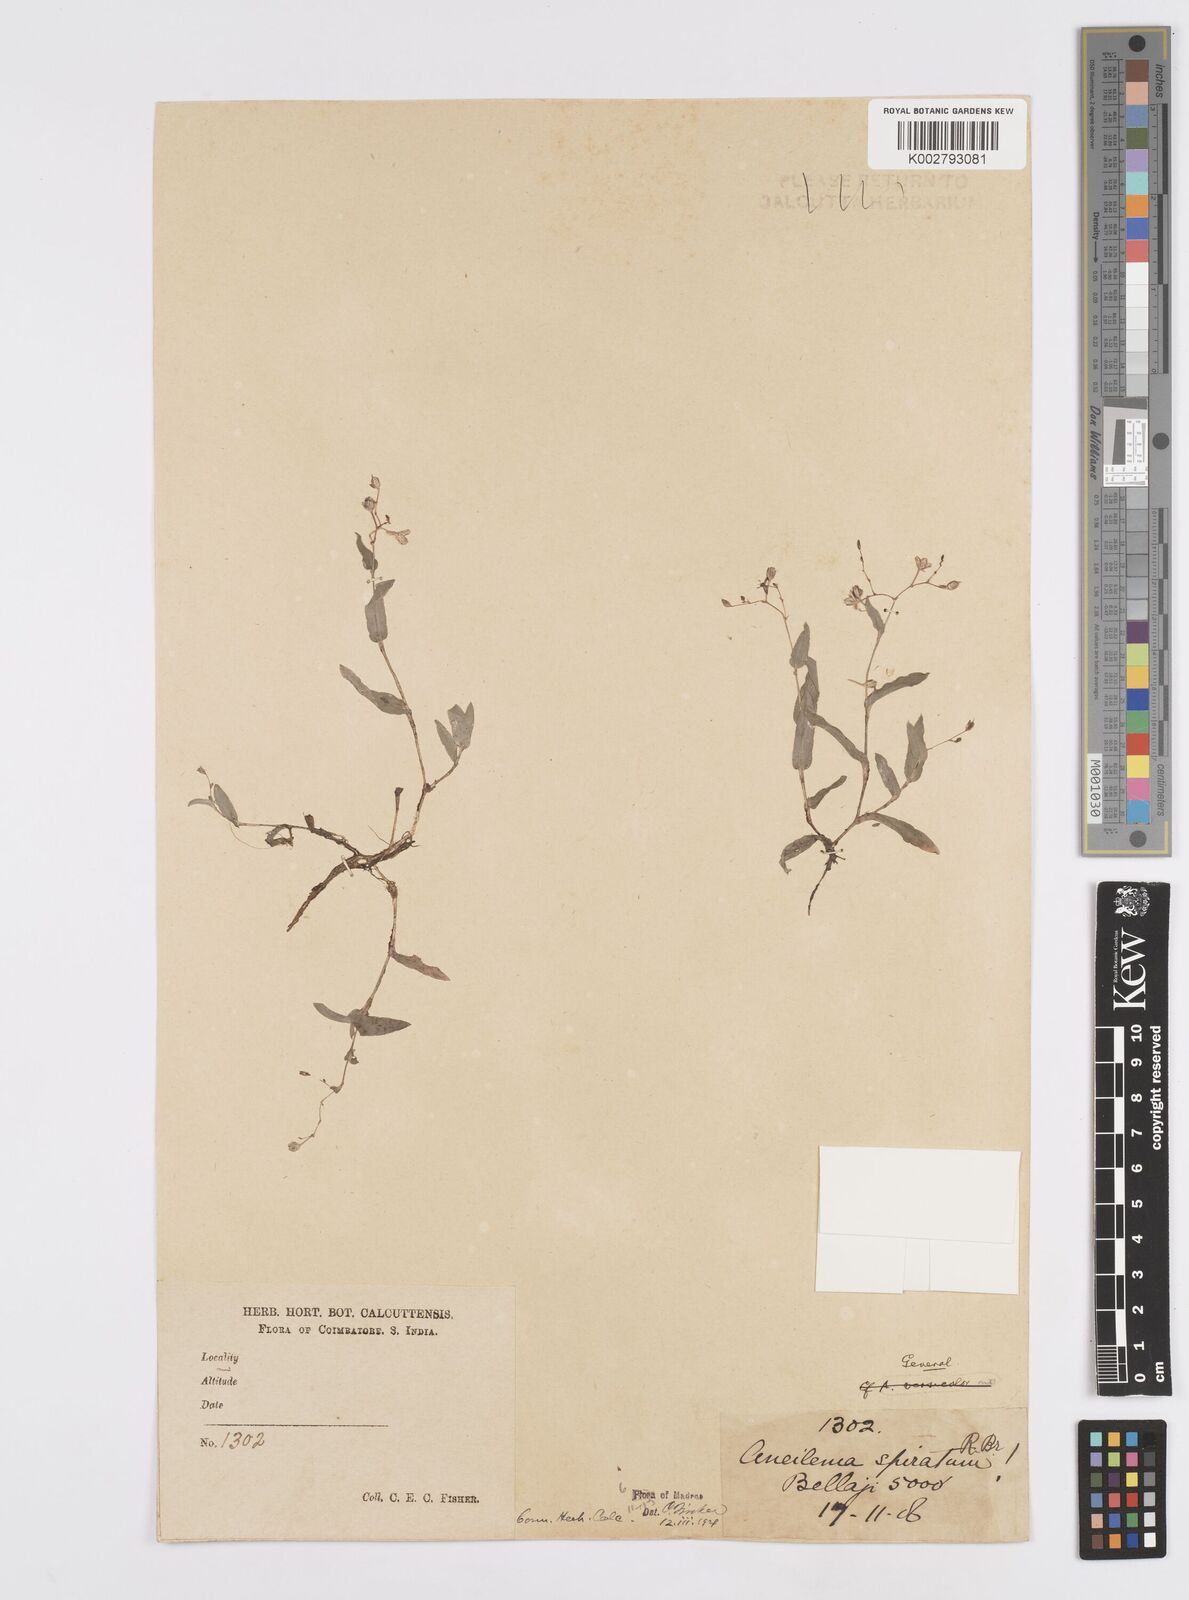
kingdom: Plantae
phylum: Tracheophyta
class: Liliopsida
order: Commelinales
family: Commelinaceae
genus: Murdannia
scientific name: Murdannia spirata
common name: Asiatic dewflower
